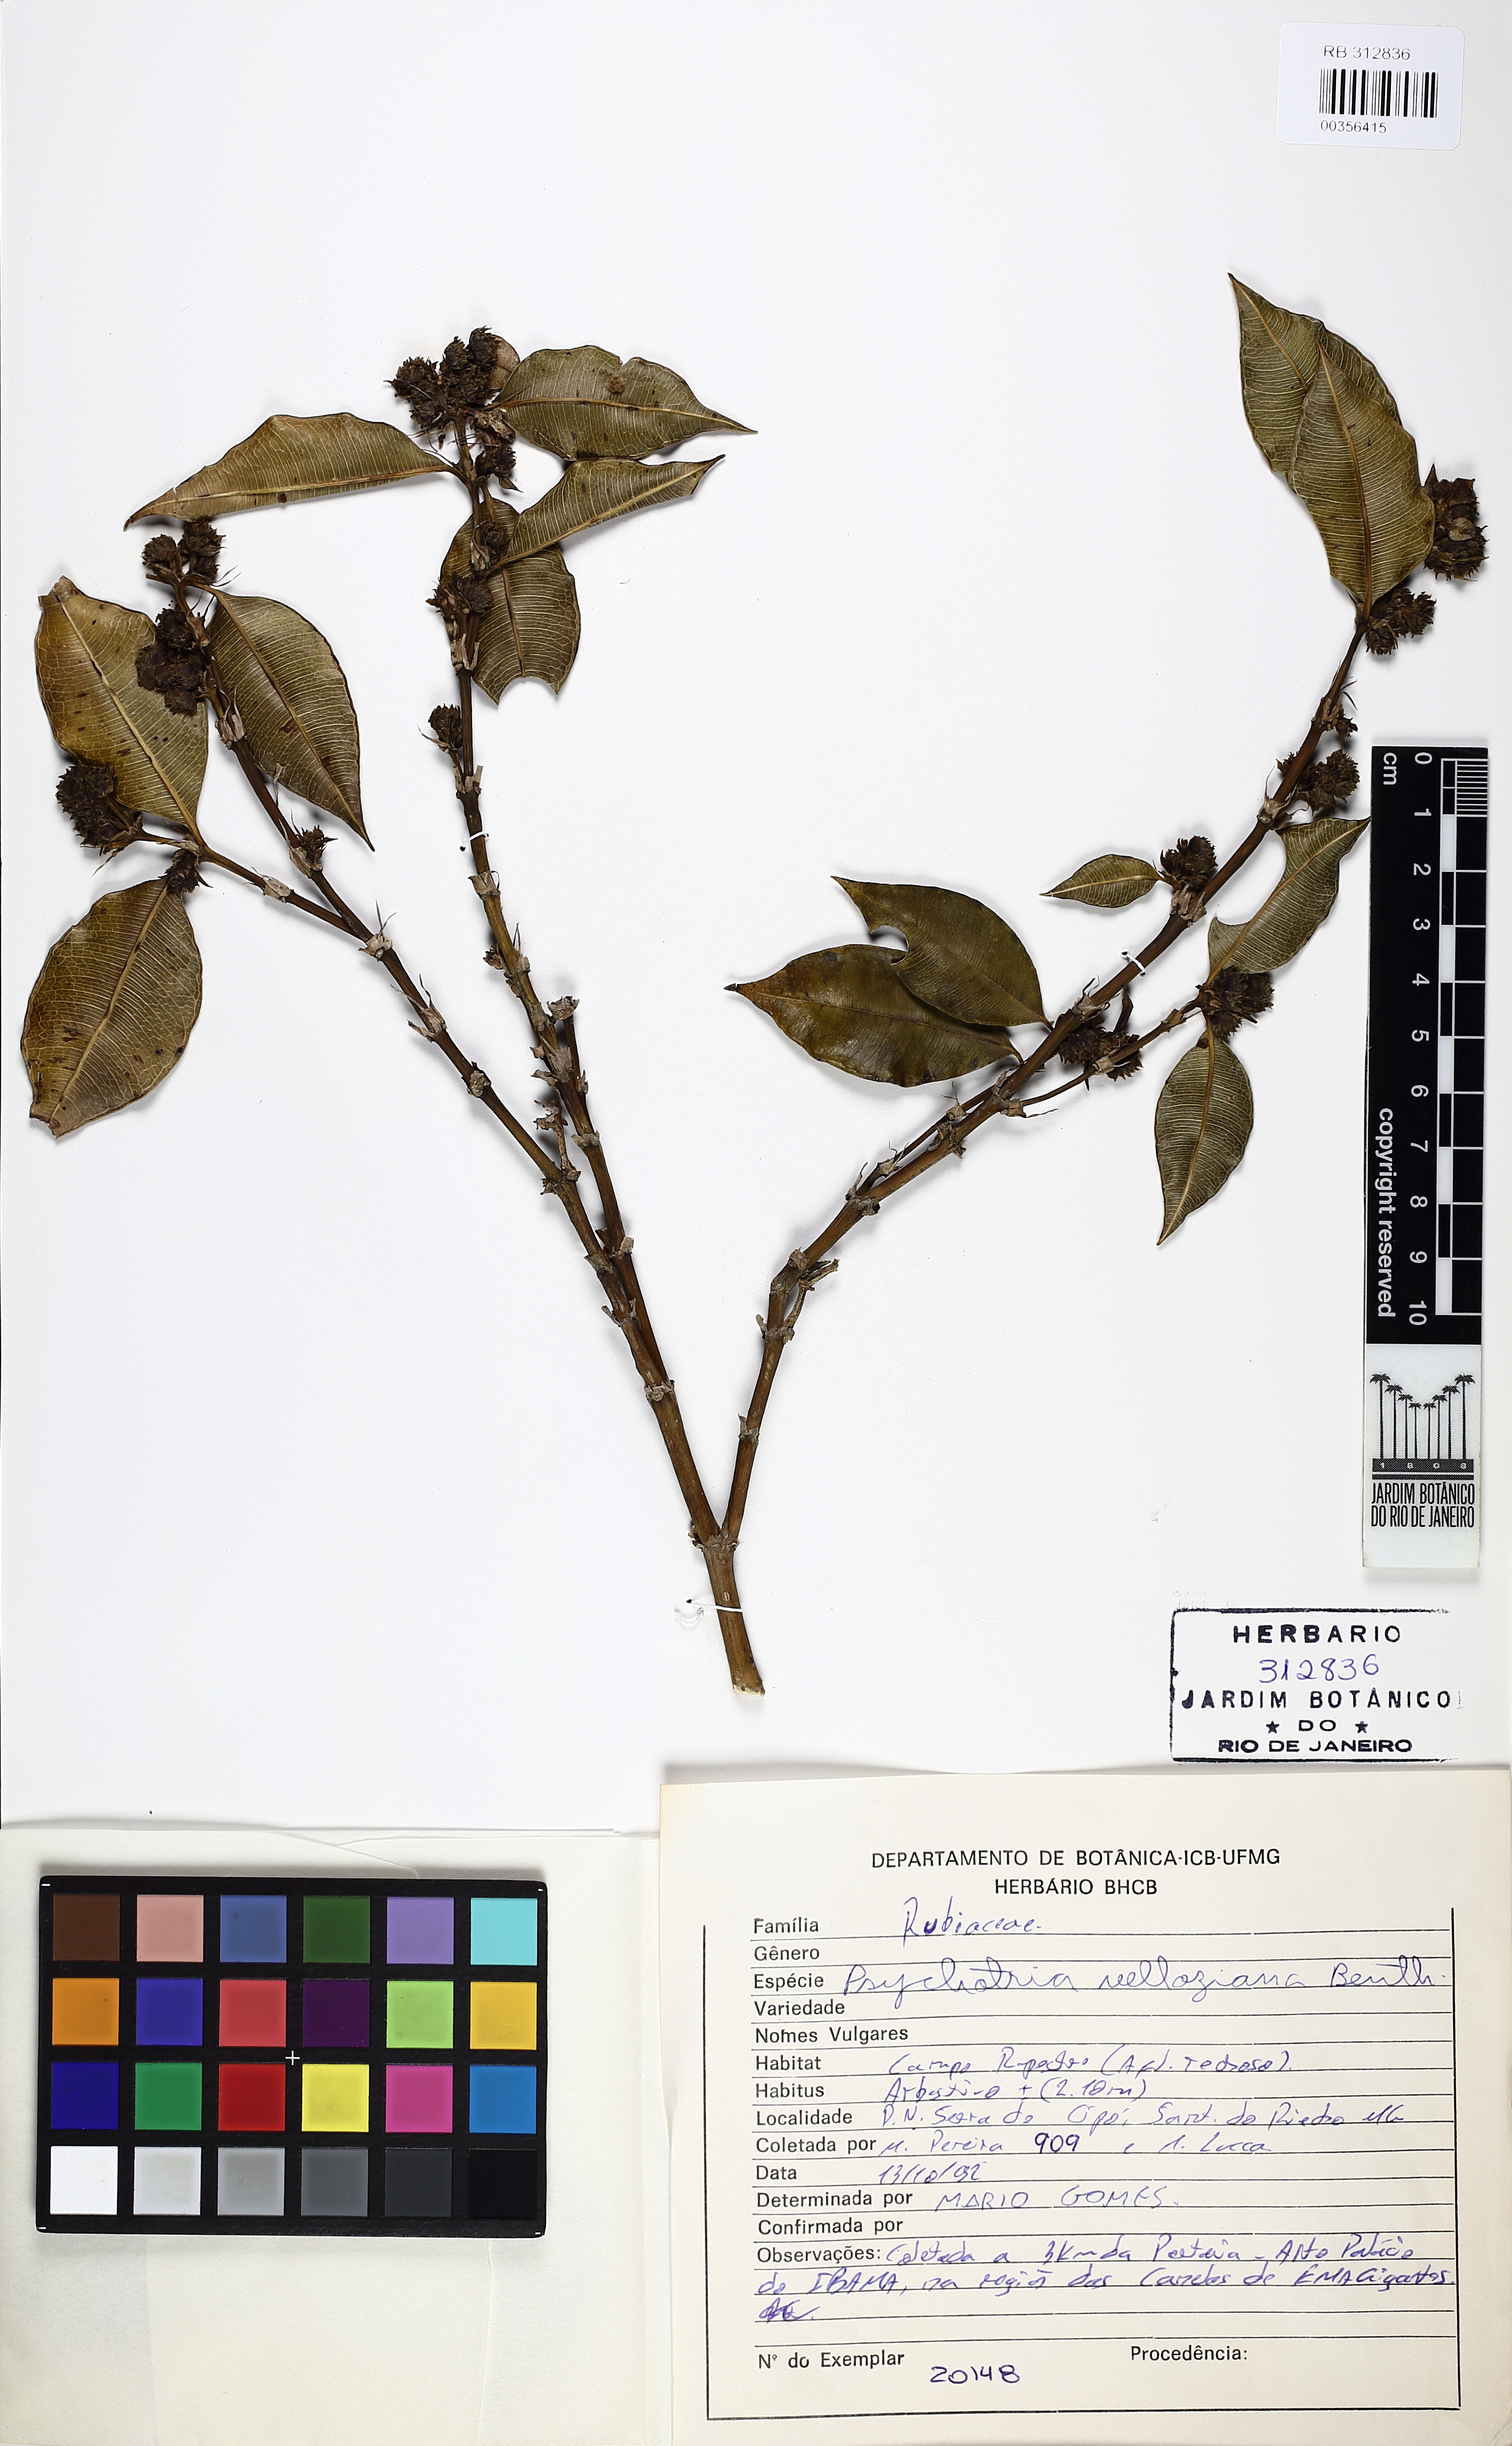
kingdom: Plantae
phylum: Tracheophyta
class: Magnoliopsida
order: Gentianales
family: Rubiaceae
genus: Rudgea
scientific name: Rudgea sessilis
